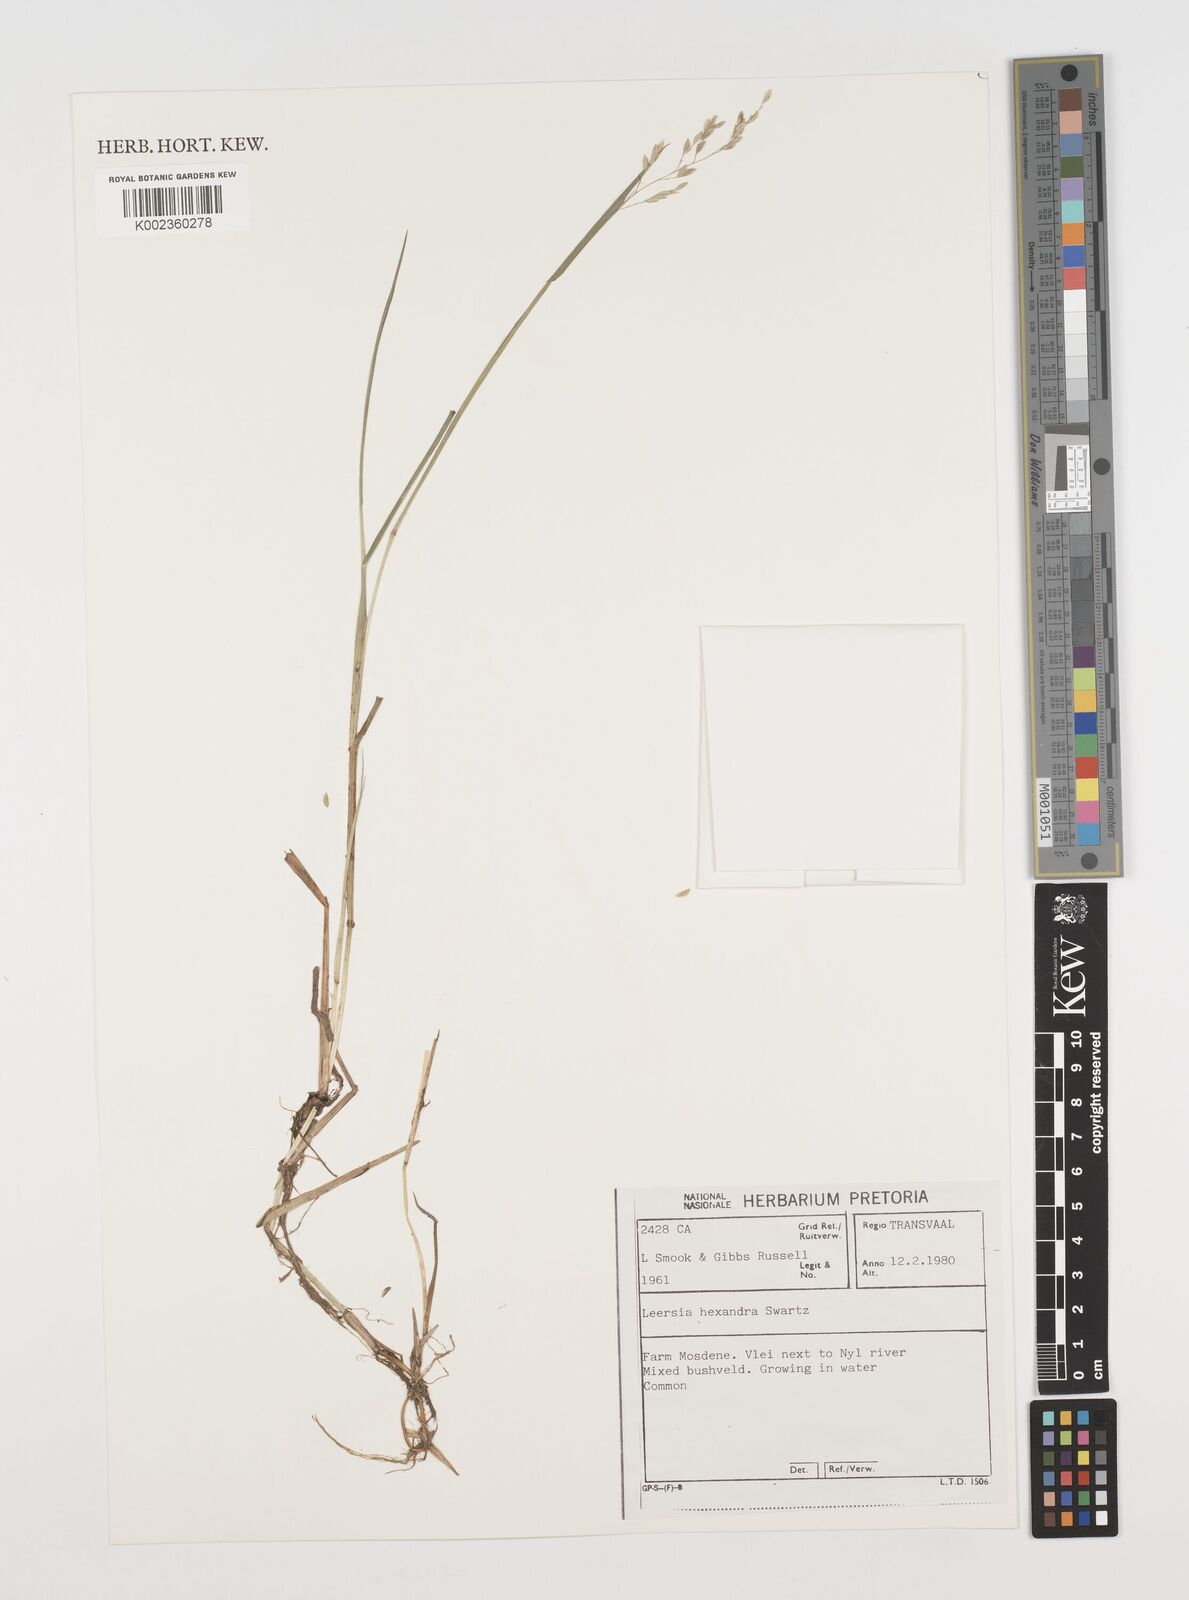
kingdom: Plantae
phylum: Tracheophyta
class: Liliopsida
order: Poales
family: Poaceae
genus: Leersia
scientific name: Leersia hexandra
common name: Southern cut grass
